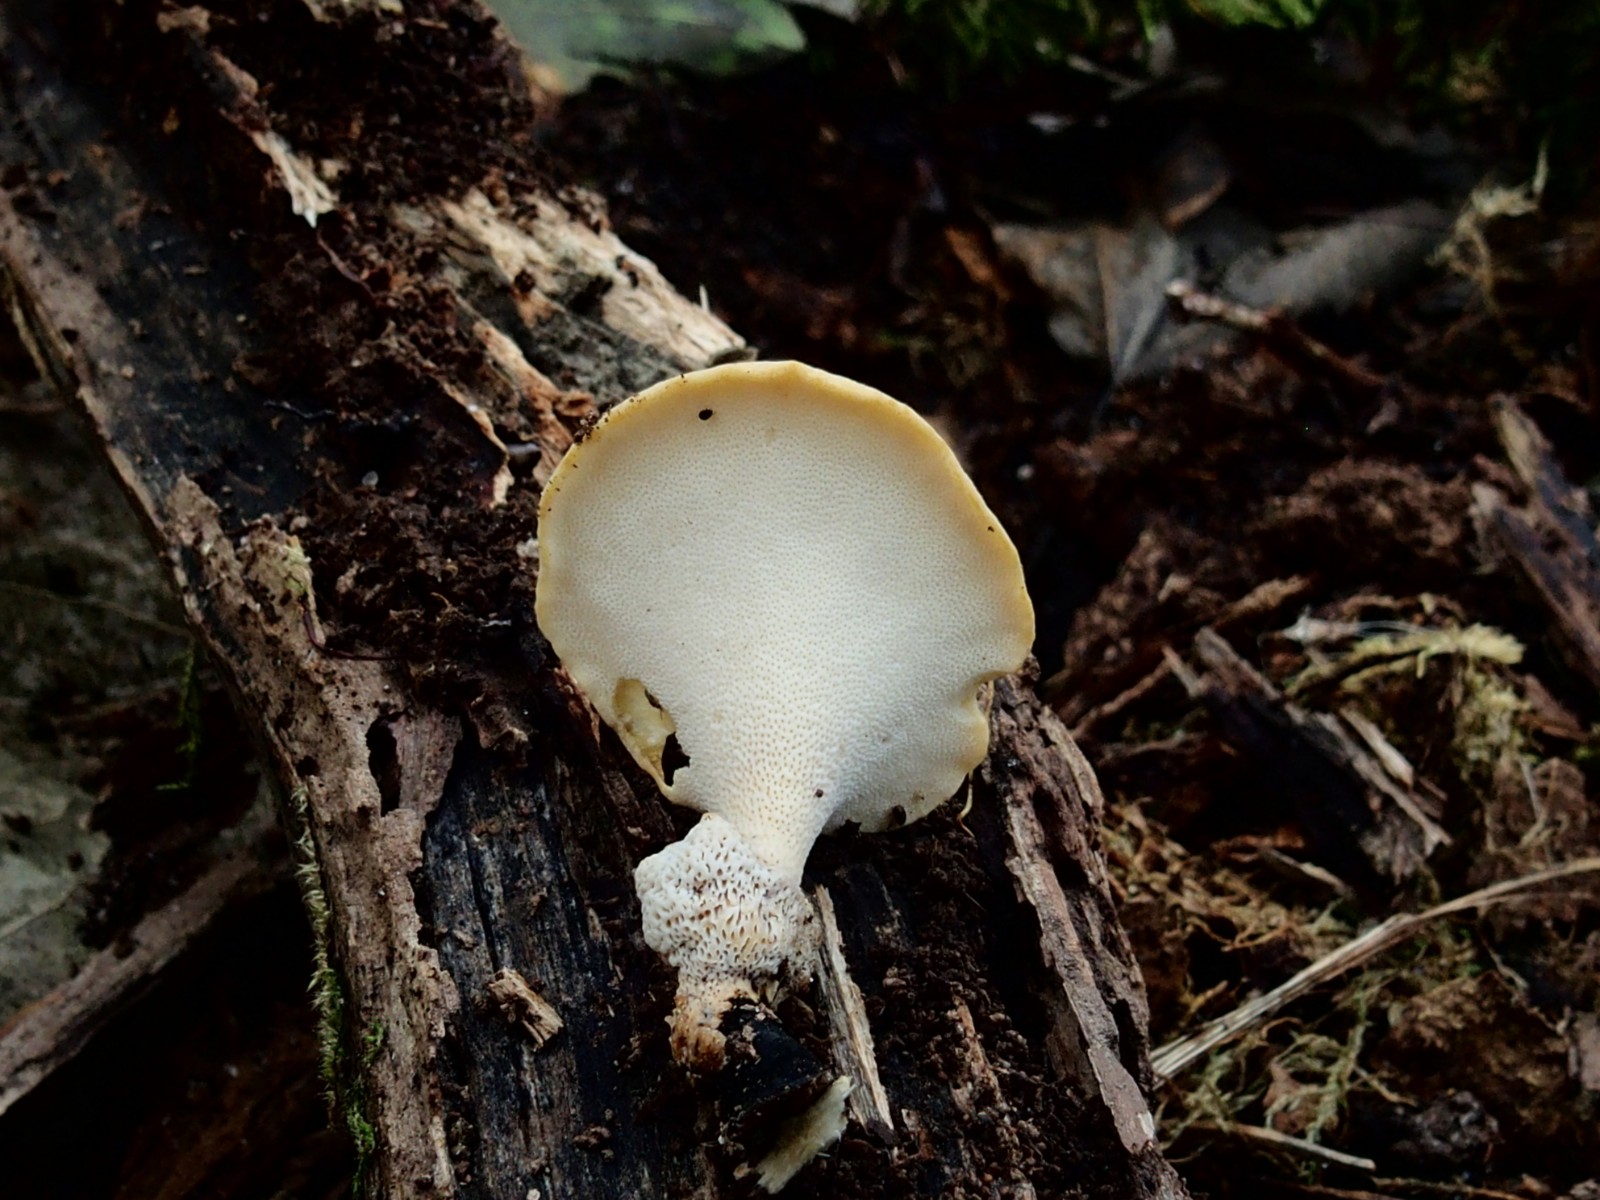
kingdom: Fungi
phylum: Basidiomycota
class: Agaricomycetes
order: Polyporales
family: Polyporaceae
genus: Cerioporus
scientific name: Cerioporus varius
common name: foranderlig stilkporesvamp
